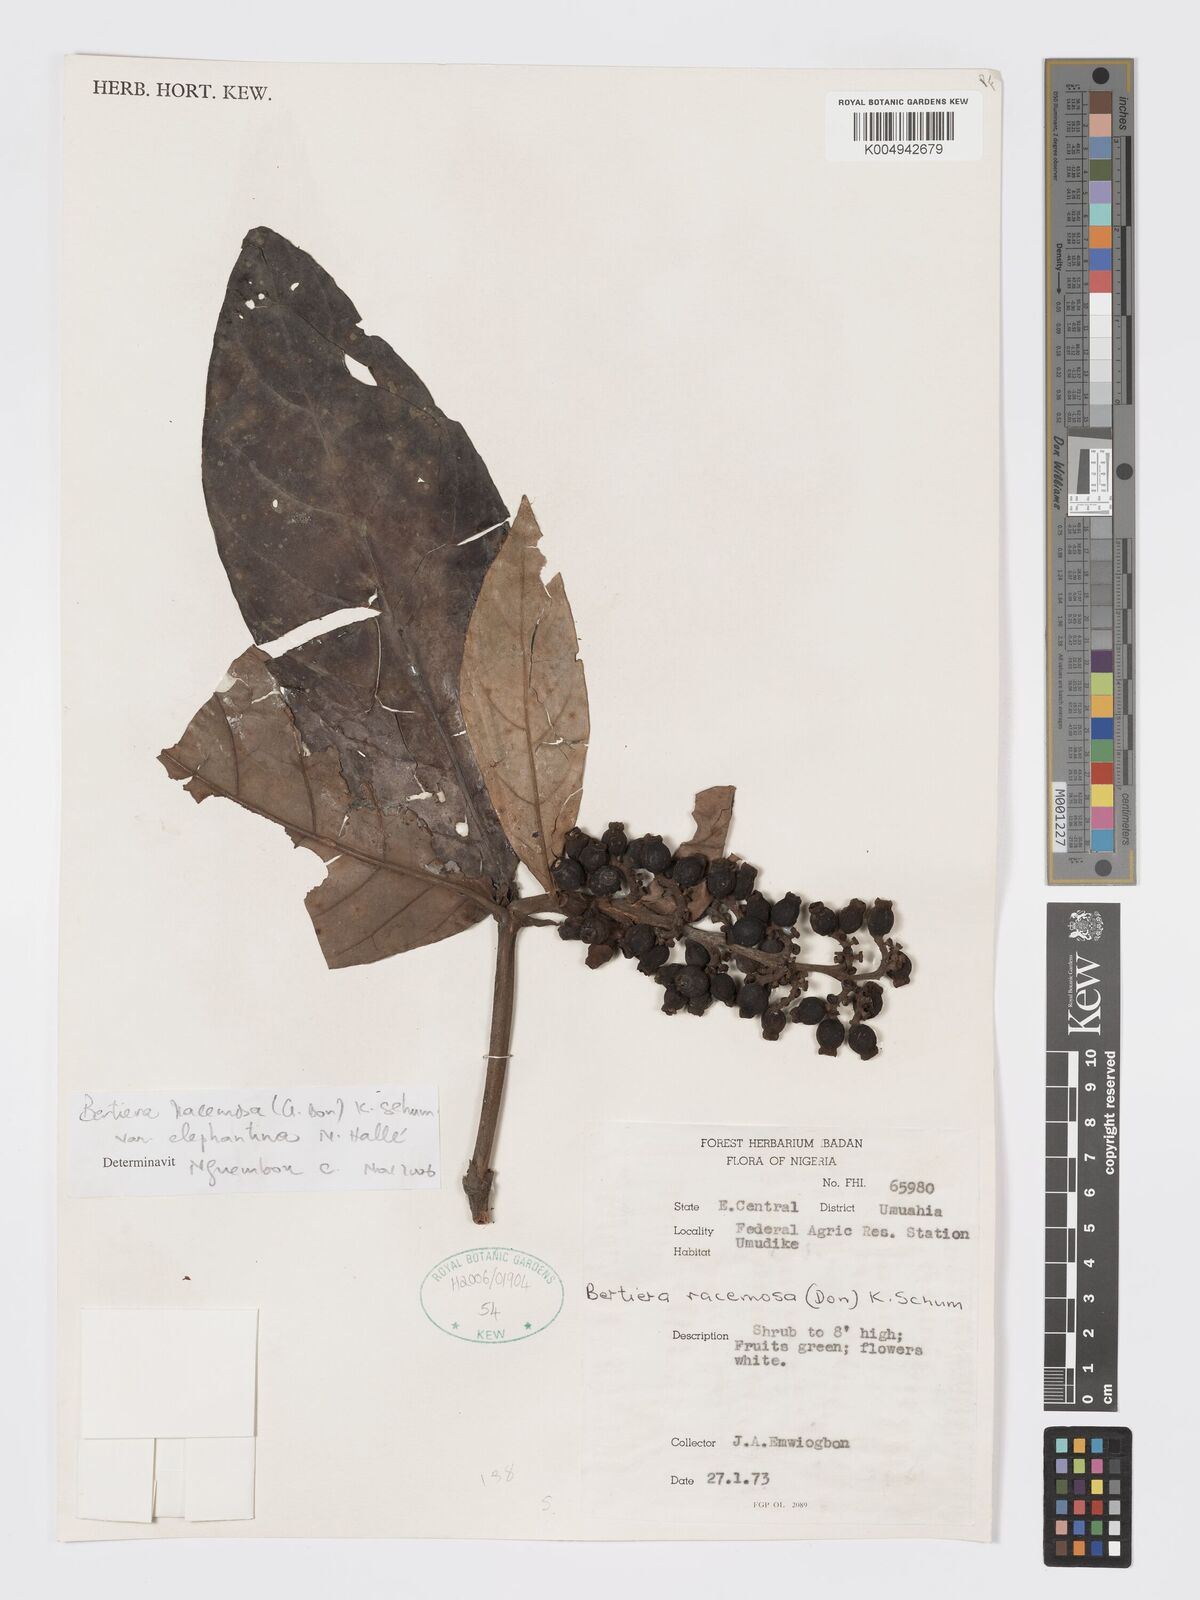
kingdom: Plantae
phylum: Tracheophyta
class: Magnoliopsida
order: Gentianales
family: Rubiaceae
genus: Bertiera
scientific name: Bertiera racemosa
